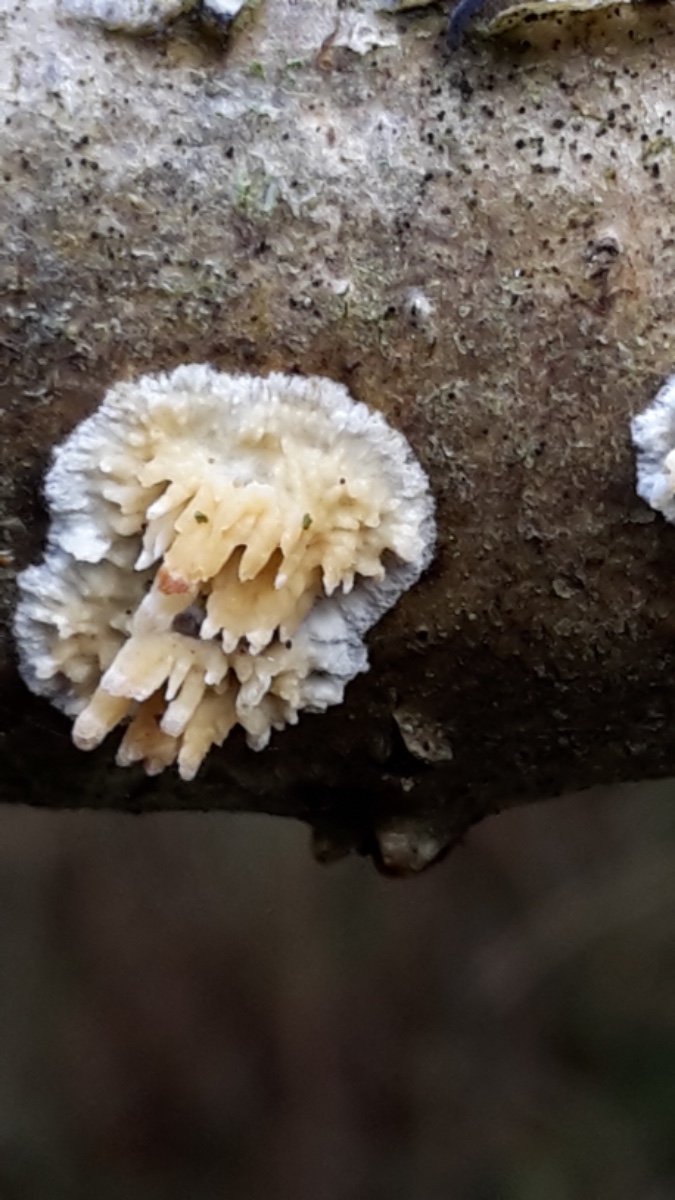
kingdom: Fungi
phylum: Basidiomycota
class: Agaricomycetes
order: Hymenochaetales
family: Schizoporaceae
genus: Xylodon
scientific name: Xylodon radula
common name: grovtandet kalkskind
